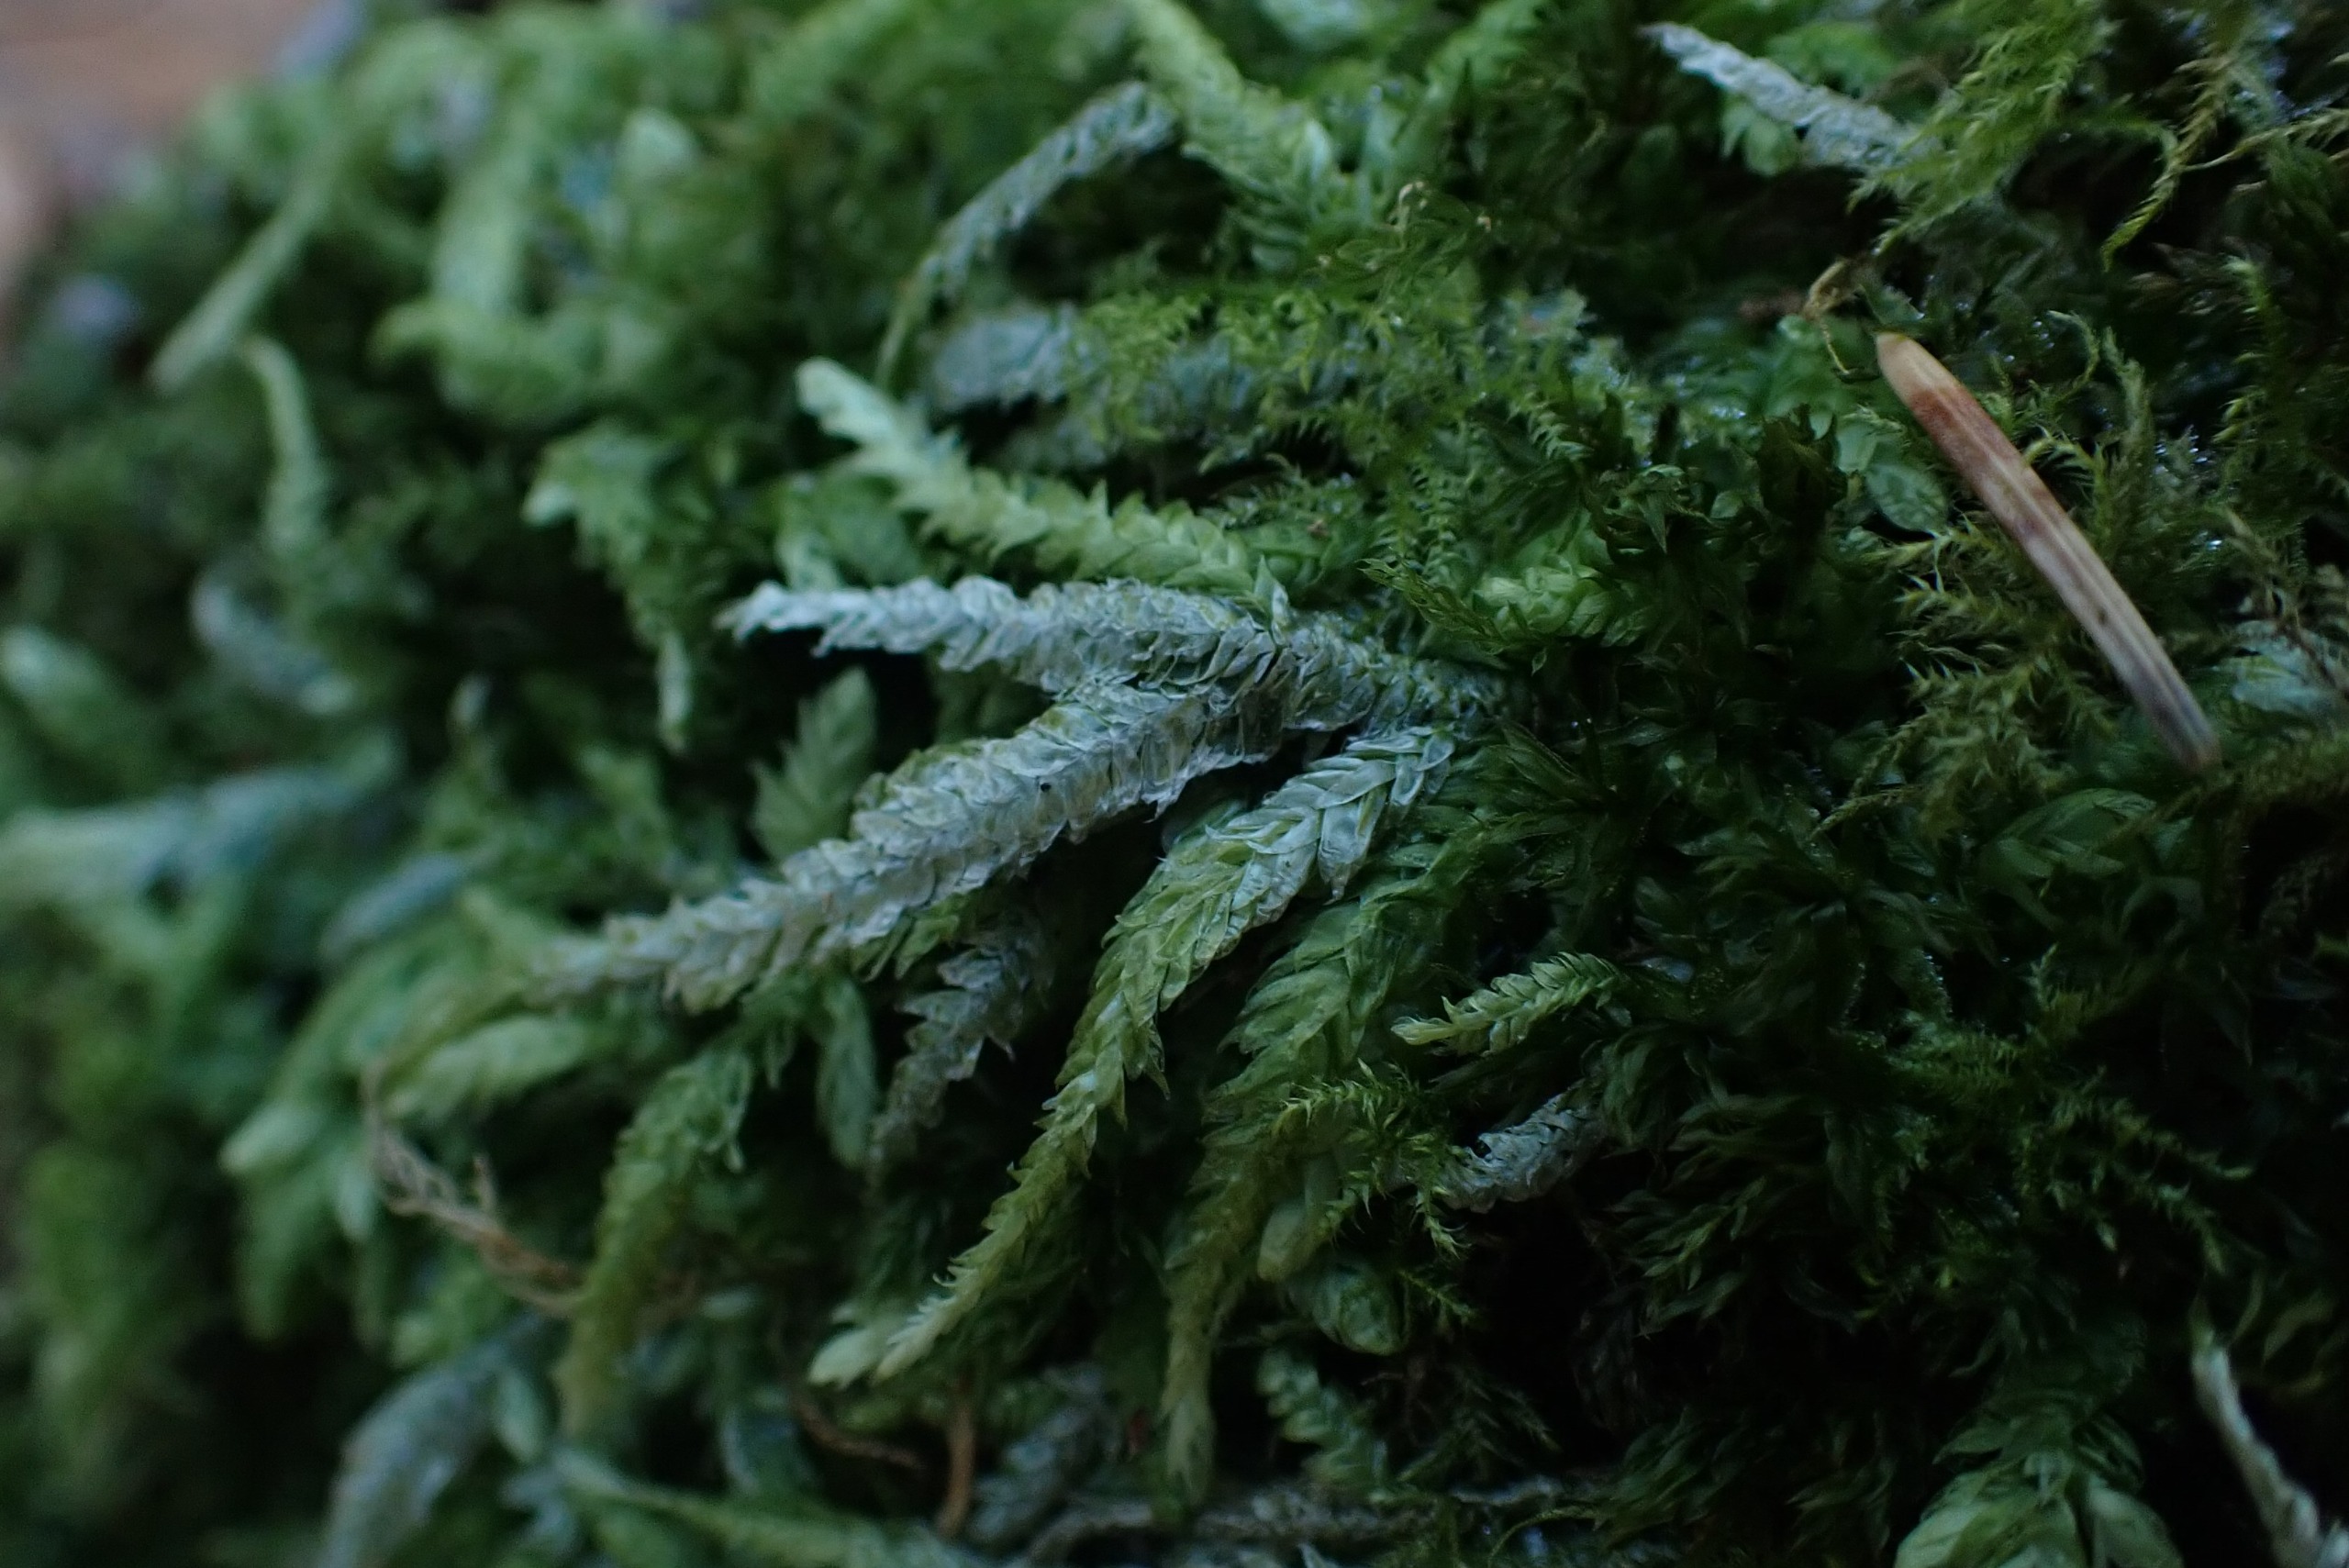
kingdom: Plantae
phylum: Bryophyta
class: Bryopsida
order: Hypnales
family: Plagiotheciaceae
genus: Plagiothecium
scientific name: Plagiothecium undulatum
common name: Bølget tæppemos
